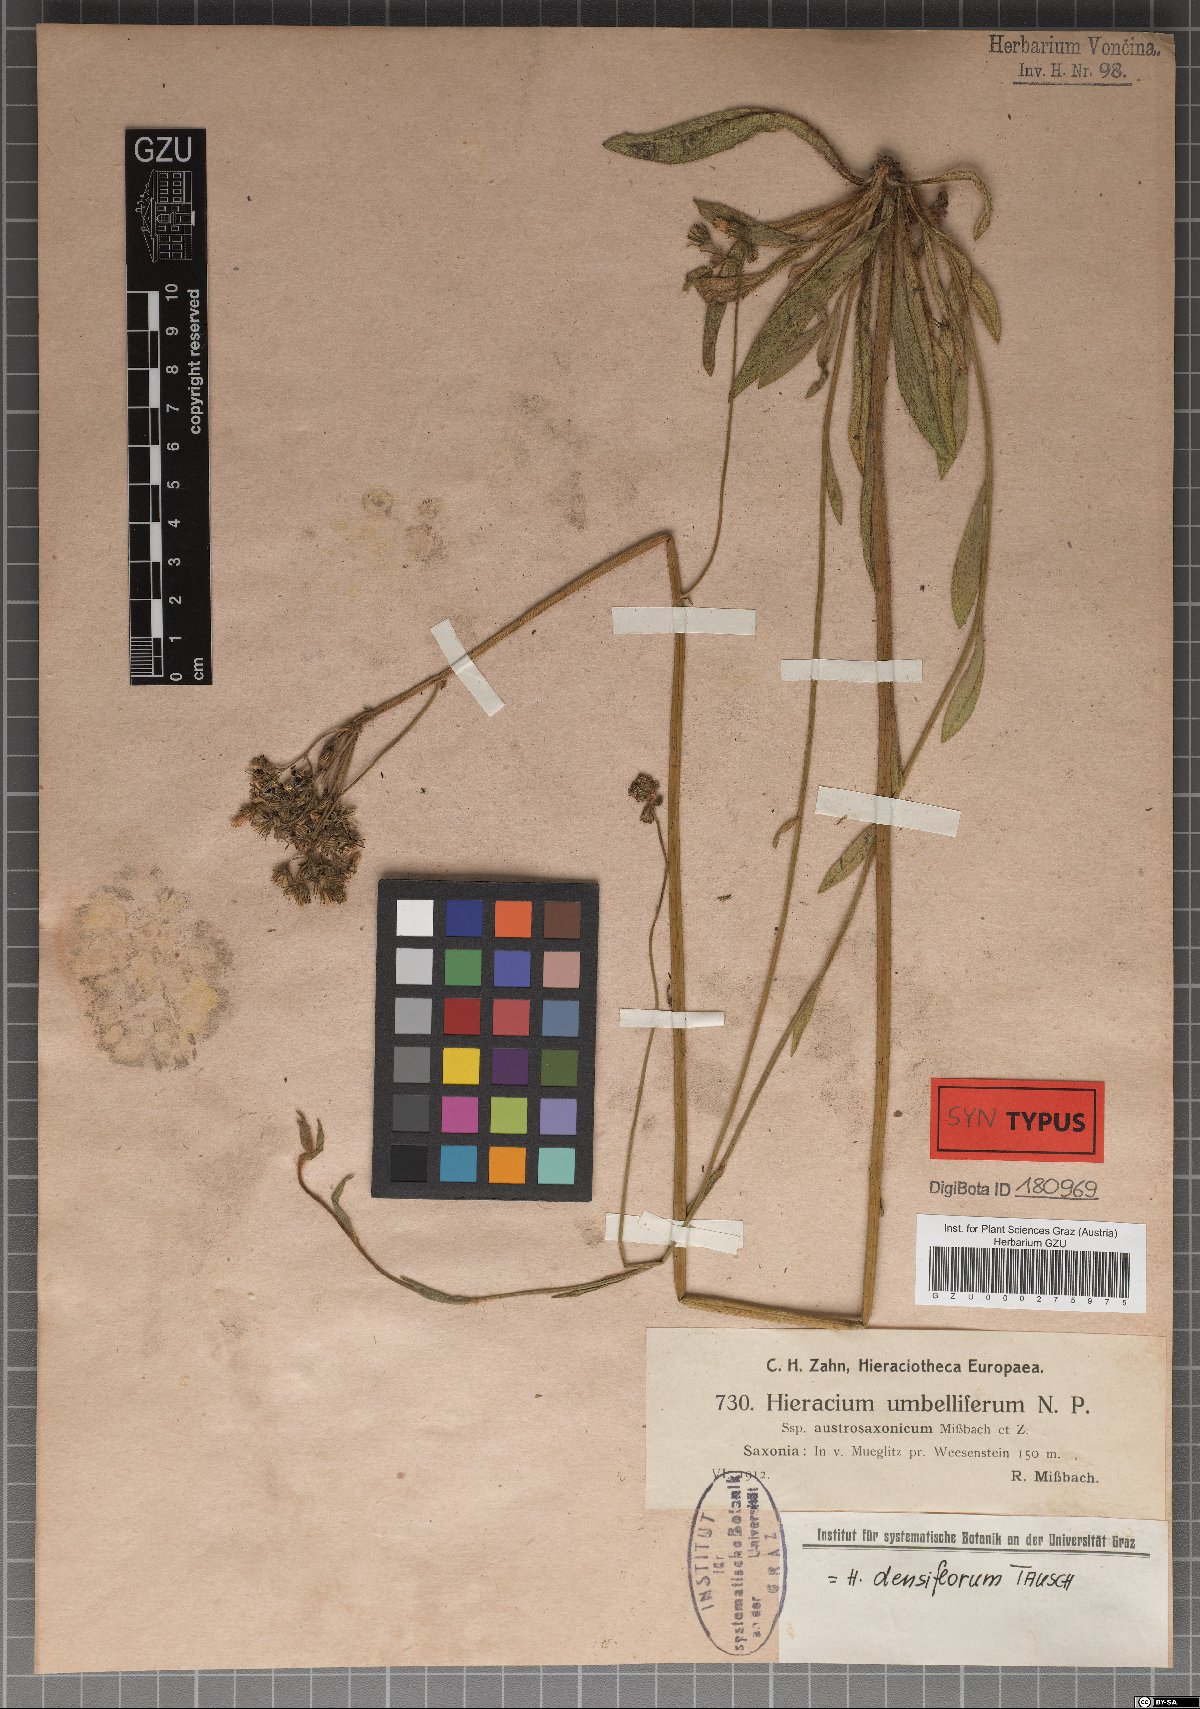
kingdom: Plantae
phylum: Tracheophyta
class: Magnoliopsida
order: Asterales
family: Asteraceae
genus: Pilosella
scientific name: Pilosella densiflora
